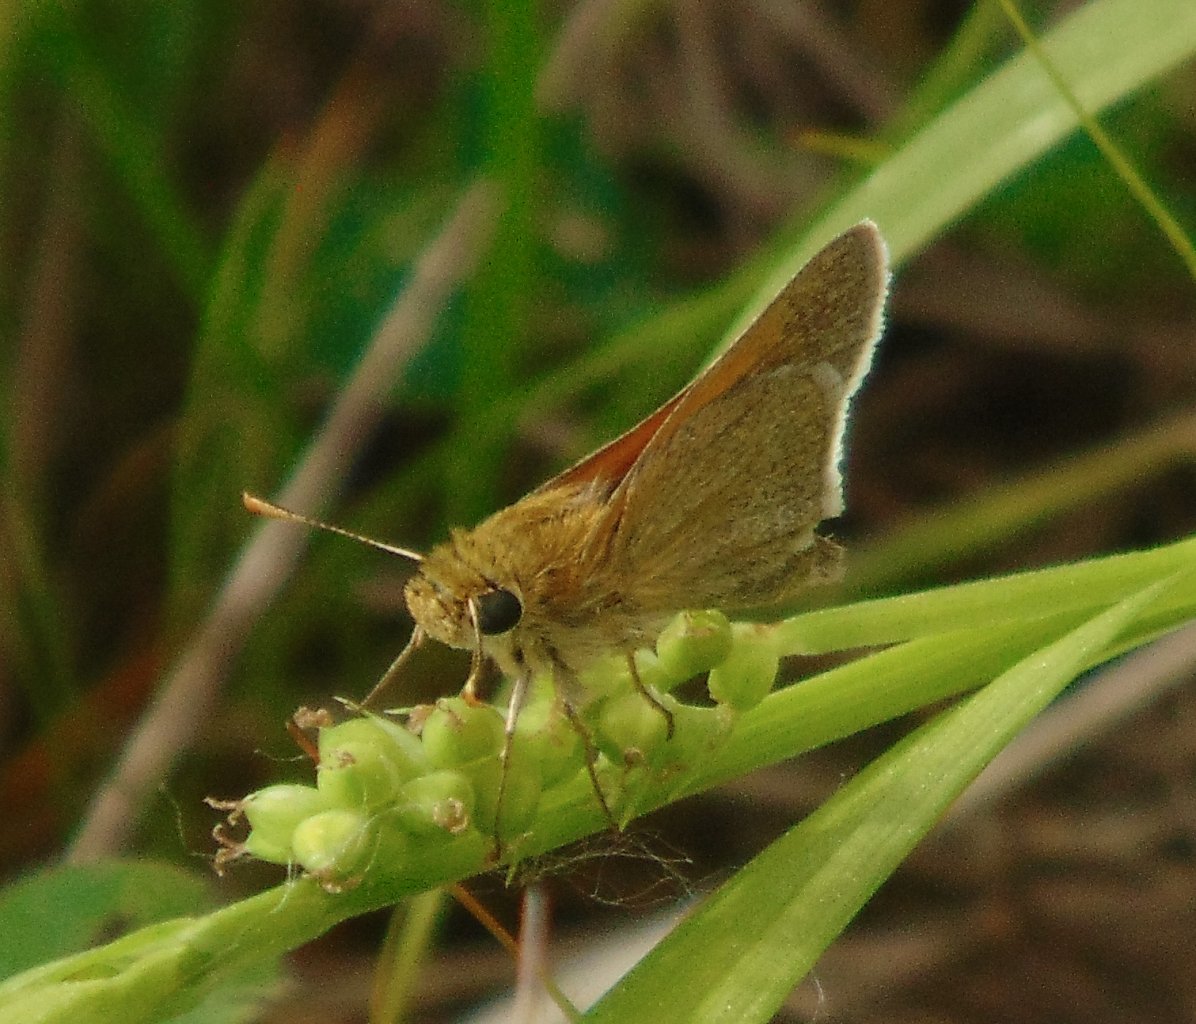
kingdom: Animalia
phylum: Arthropoda
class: Insecta
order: Lepidoptera
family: Hesperiidae
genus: Polites
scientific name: Polites themistocles
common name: Tawny-edged Skipper
